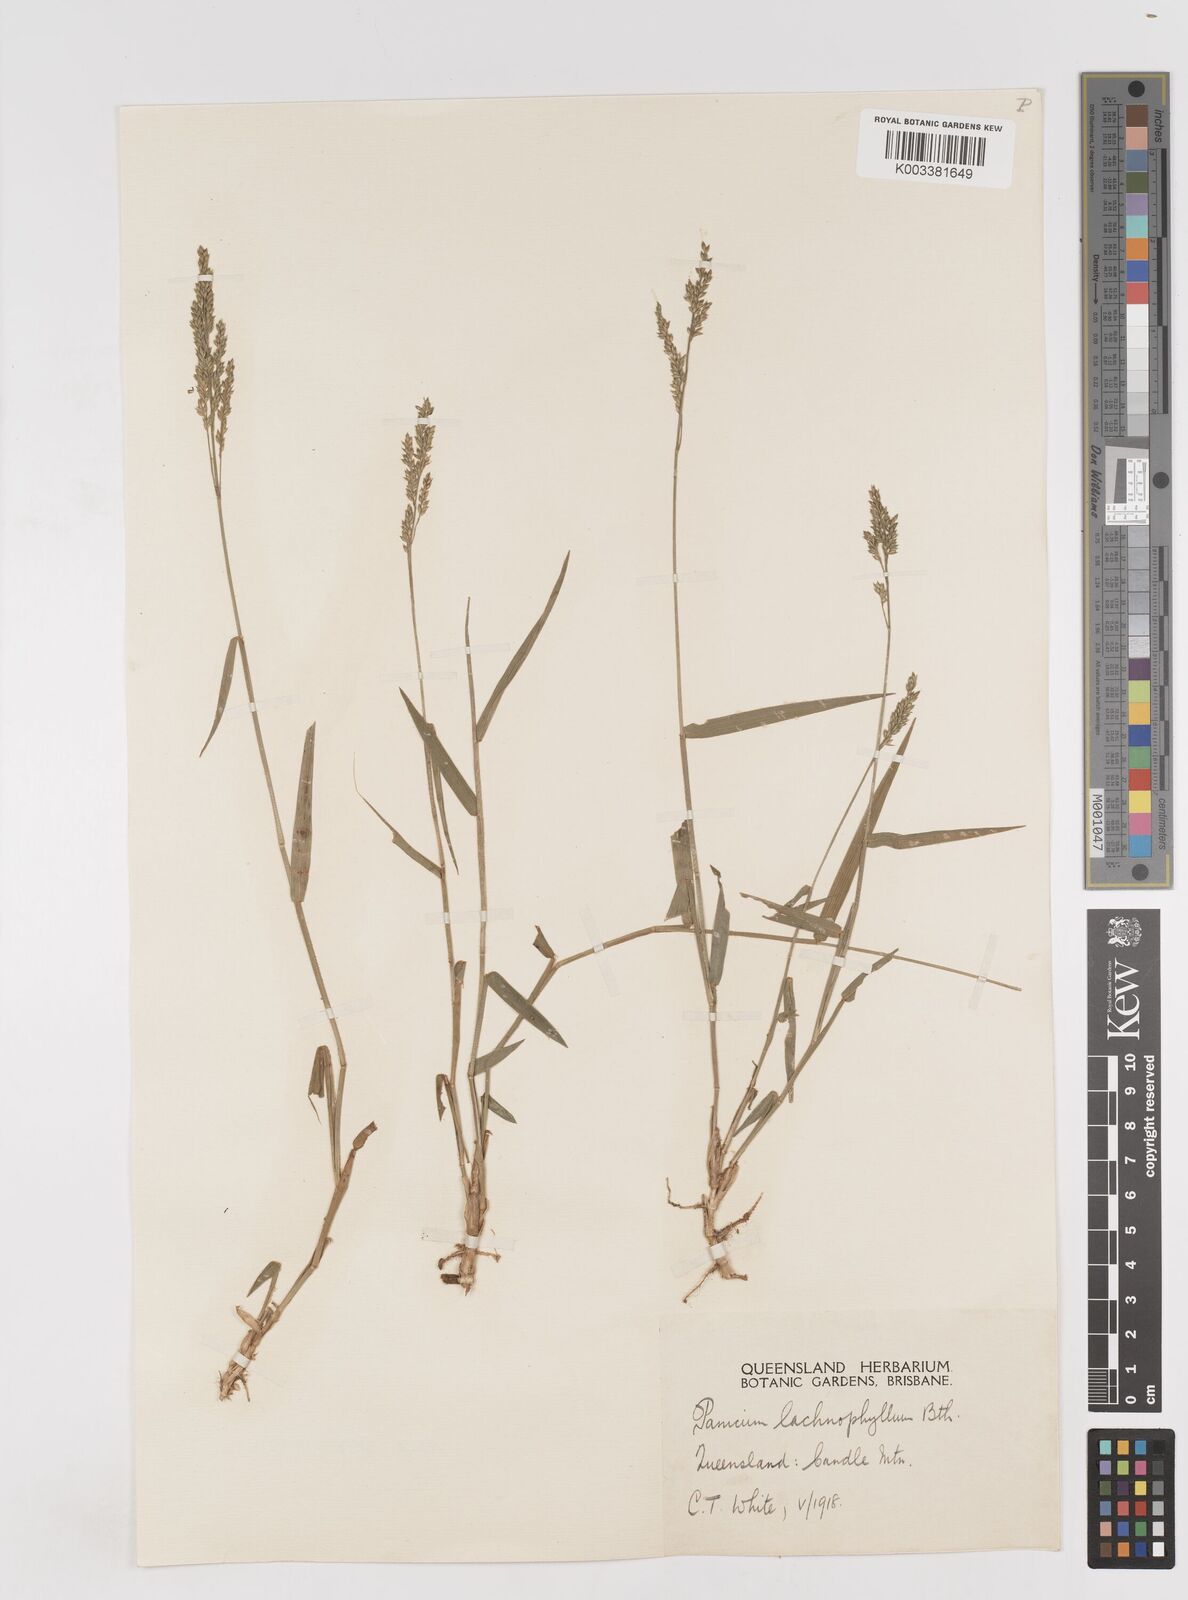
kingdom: Plantae
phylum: Tracheophyta
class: Liliopsida
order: Poales
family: Poaceae
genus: Entolasia
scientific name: Entolasia marginata
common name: Australian panicgrass
